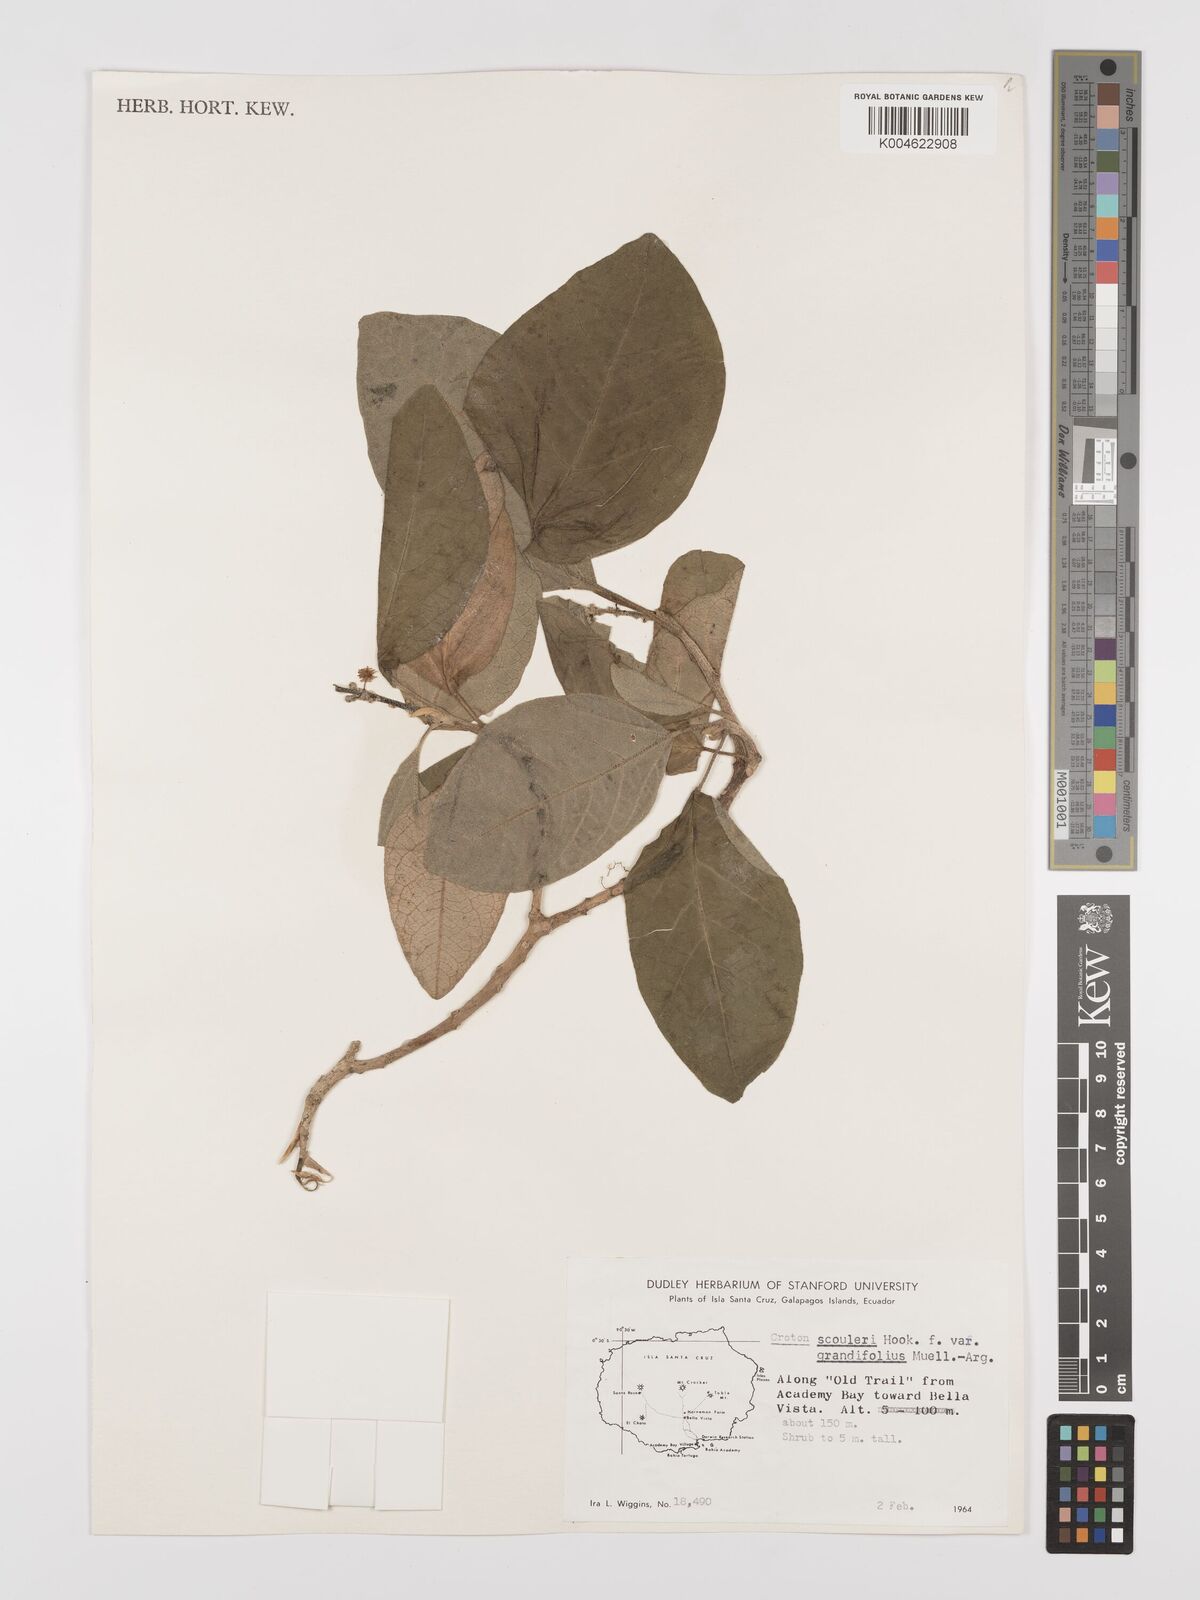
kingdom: Plantae
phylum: Tracheophyta
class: Magnoliopsida
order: Malpighiales
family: Euphorbiaceae
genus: Croton
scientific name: Croton scouleri
